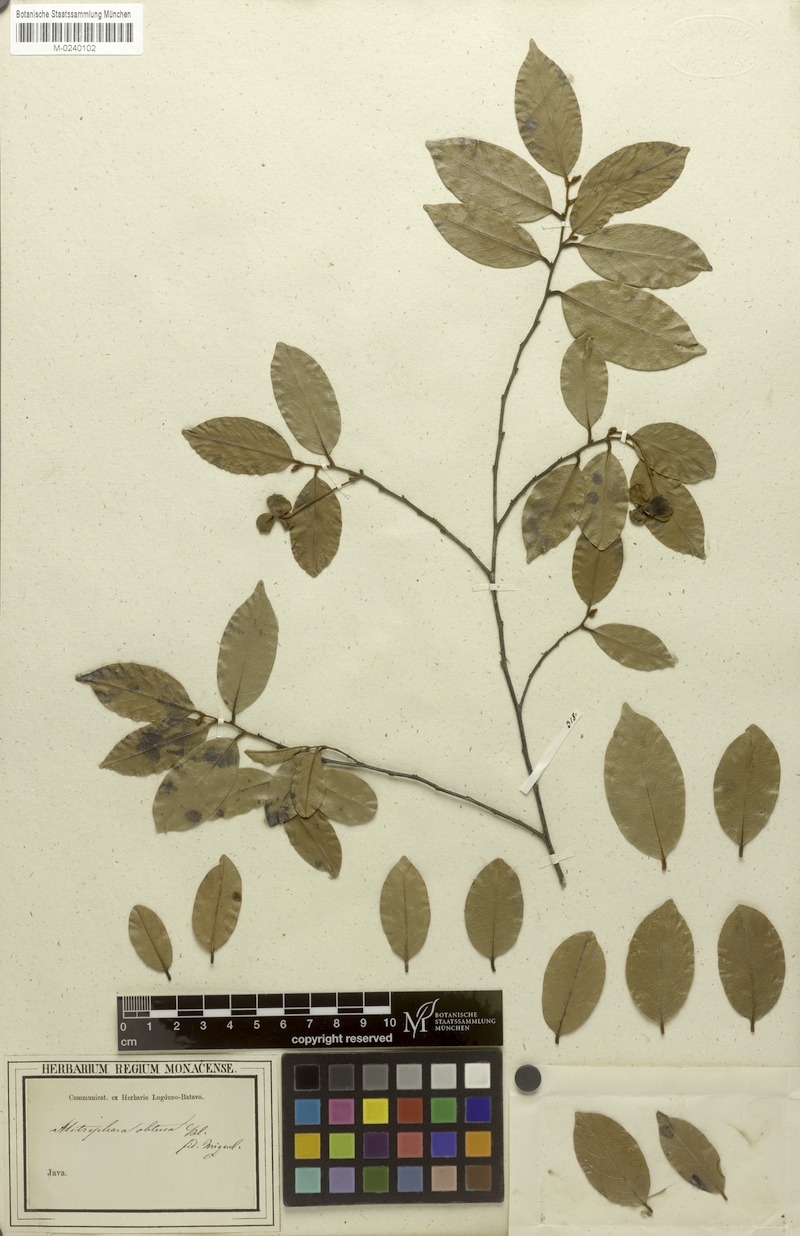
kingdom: Plantae
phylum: Tracheophyta
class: Magnoliopsida
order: Magnoliales
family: Annonaceae
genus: Mitrephora
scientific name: Mitrephora obtusa
